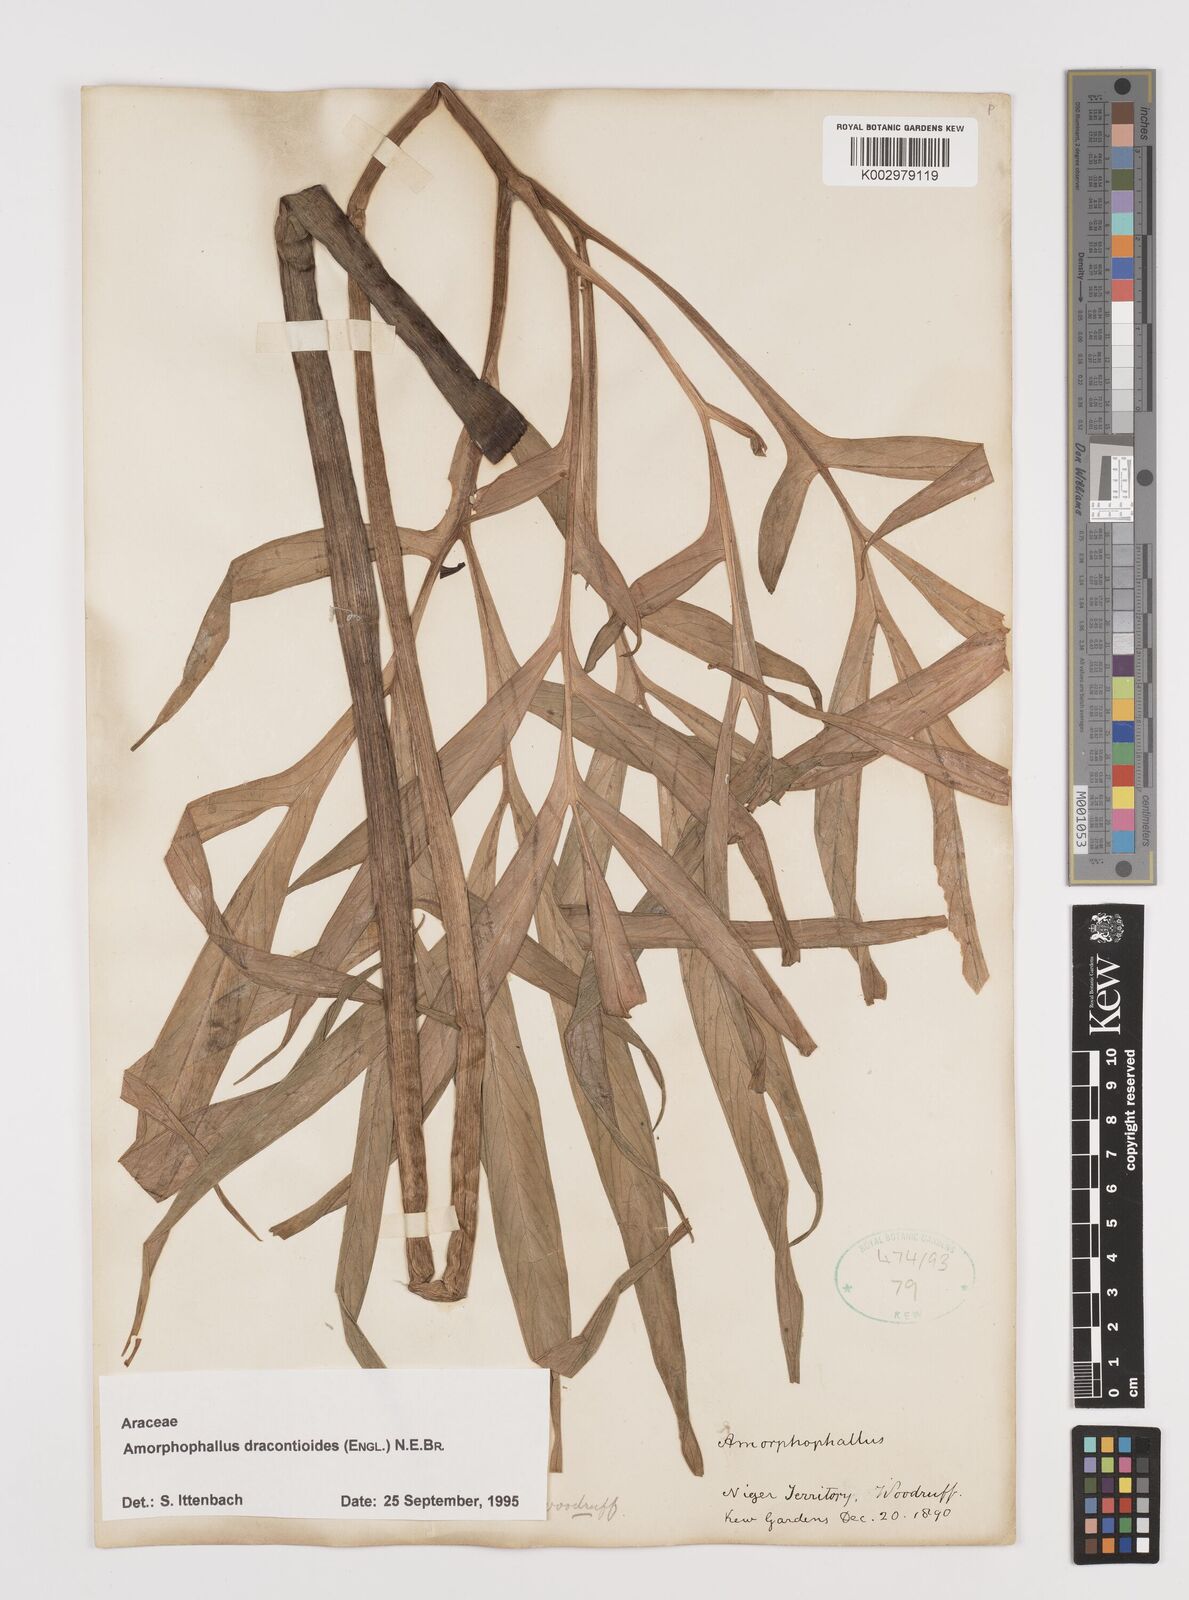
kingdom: Plantae
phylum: Tracheophyta
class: Liliopsida
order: Alismatales
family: Araceae
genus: Amorphophallus
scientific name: Amorphophallus dracontioides
